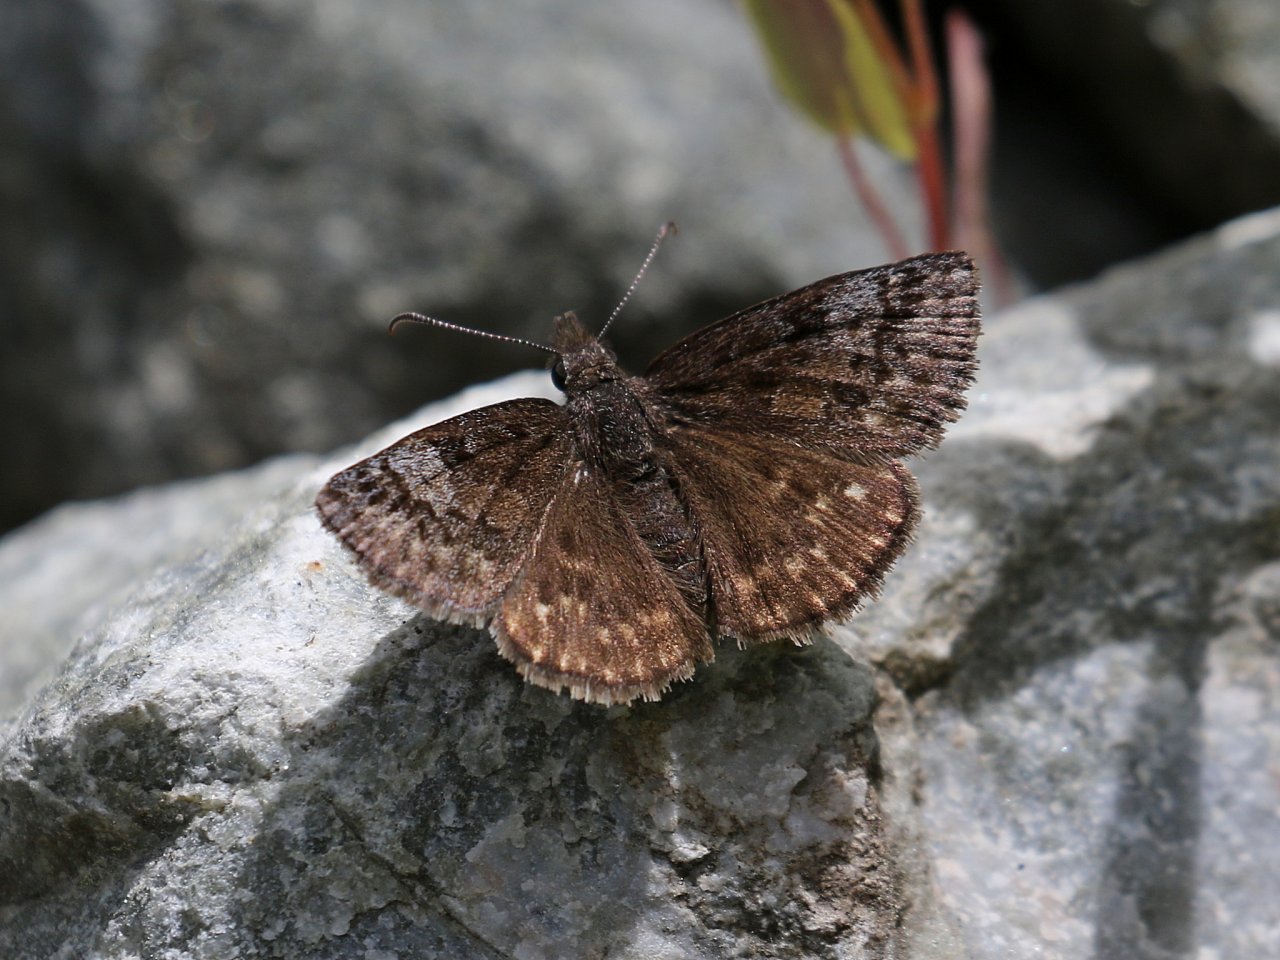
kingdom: Animalia
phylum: Arthropoda
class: Insecta
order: Lepidoptera
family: Hesperiidae
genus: Erynnis
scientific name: Erynnis icelus
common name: Dreamy Duskywing
